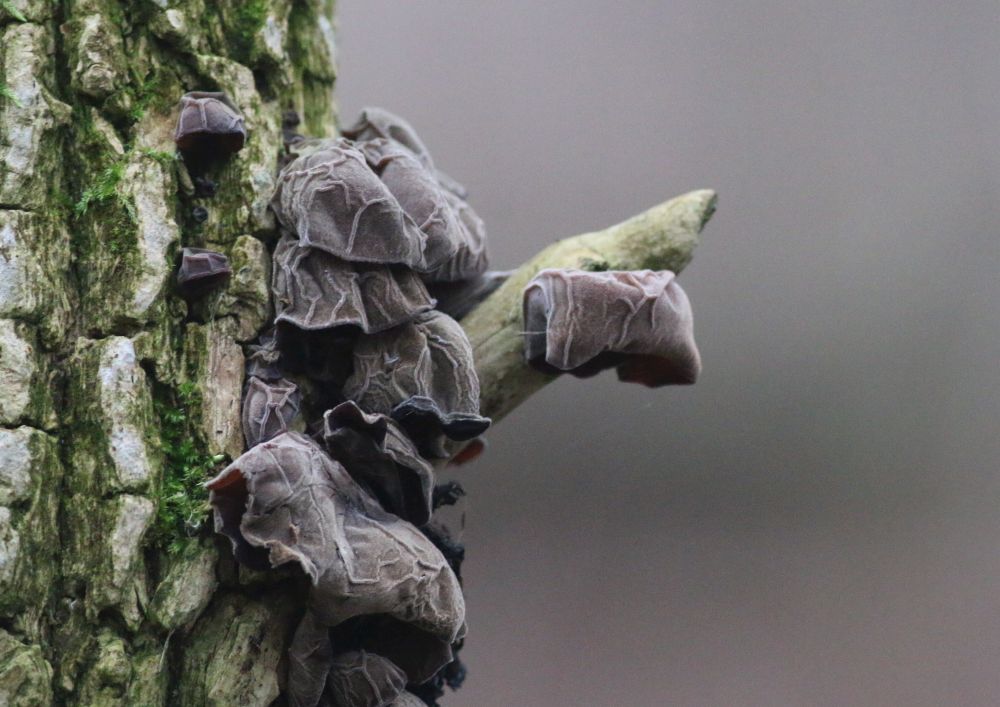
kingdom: Fungi
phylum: Basidiomycota
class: Agaricomycetes
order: Auriculariales
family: Auriculariaceae
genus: Auricularia
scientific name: Auricularia auricula-judae
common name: almindelig judasøre
